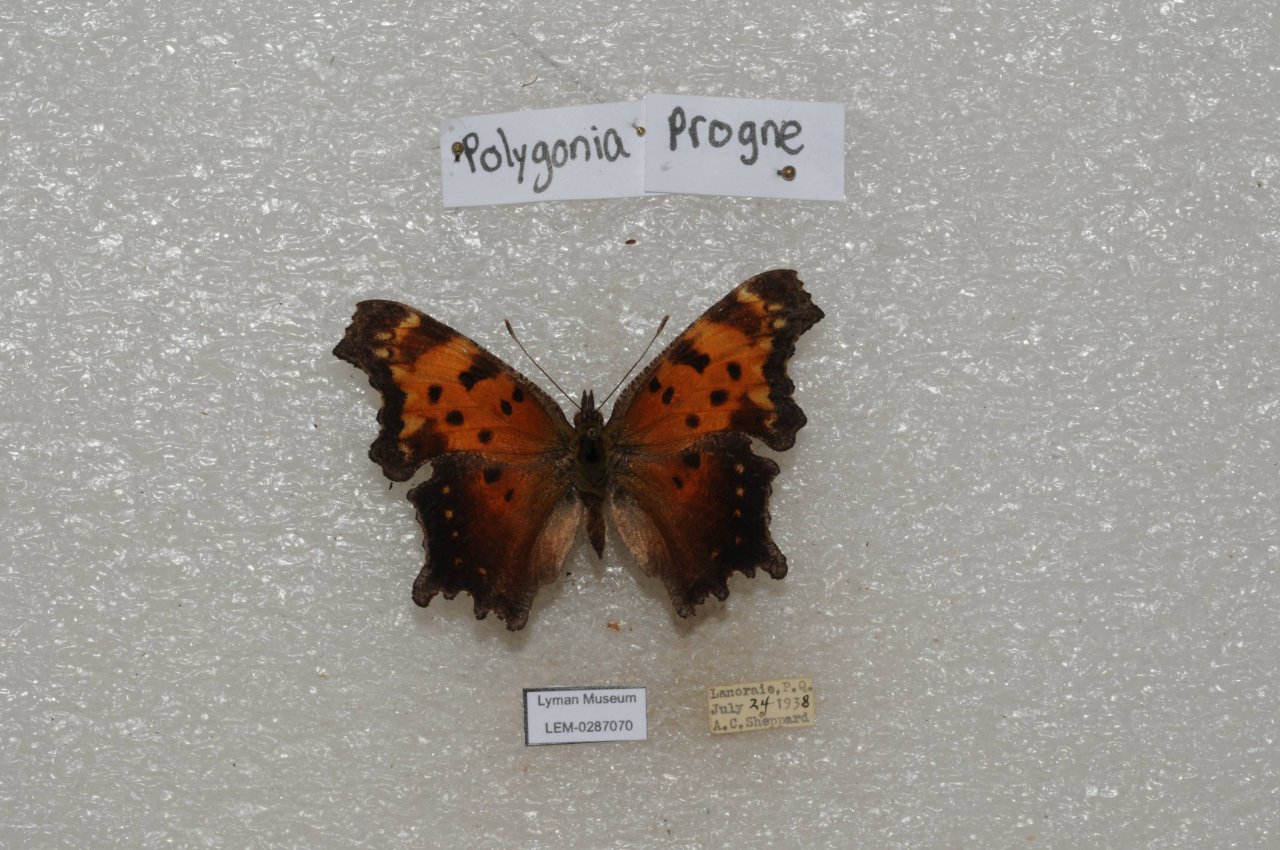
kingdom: Animalia
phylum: Arthropoda
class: Insecta
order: Lepidoptera
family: Nymphalidae
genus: Polygonia
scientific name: Polygonia progne
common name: Gray Comma
